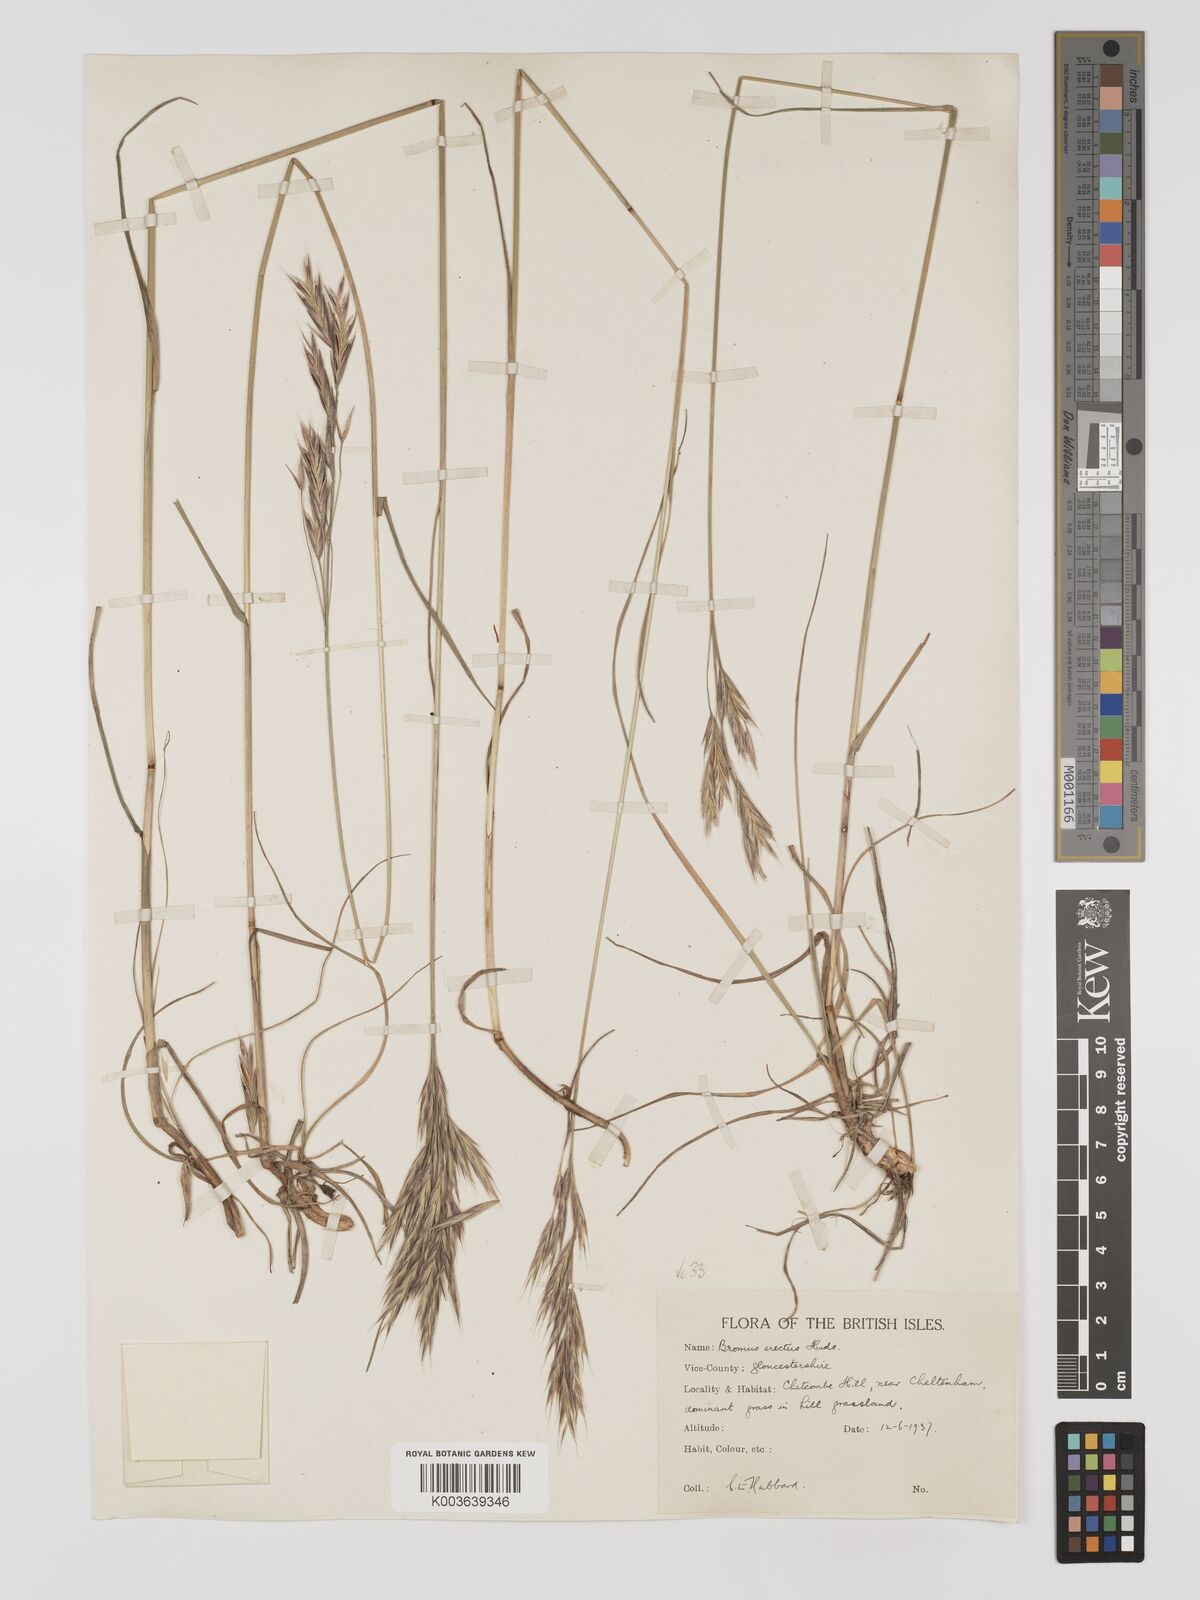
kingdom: Plantae
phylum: Tracheophyta
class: Liliopsida
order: Poales
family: Poaceae
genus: Bromus
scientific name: Bromus erectus
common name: Erect brome
